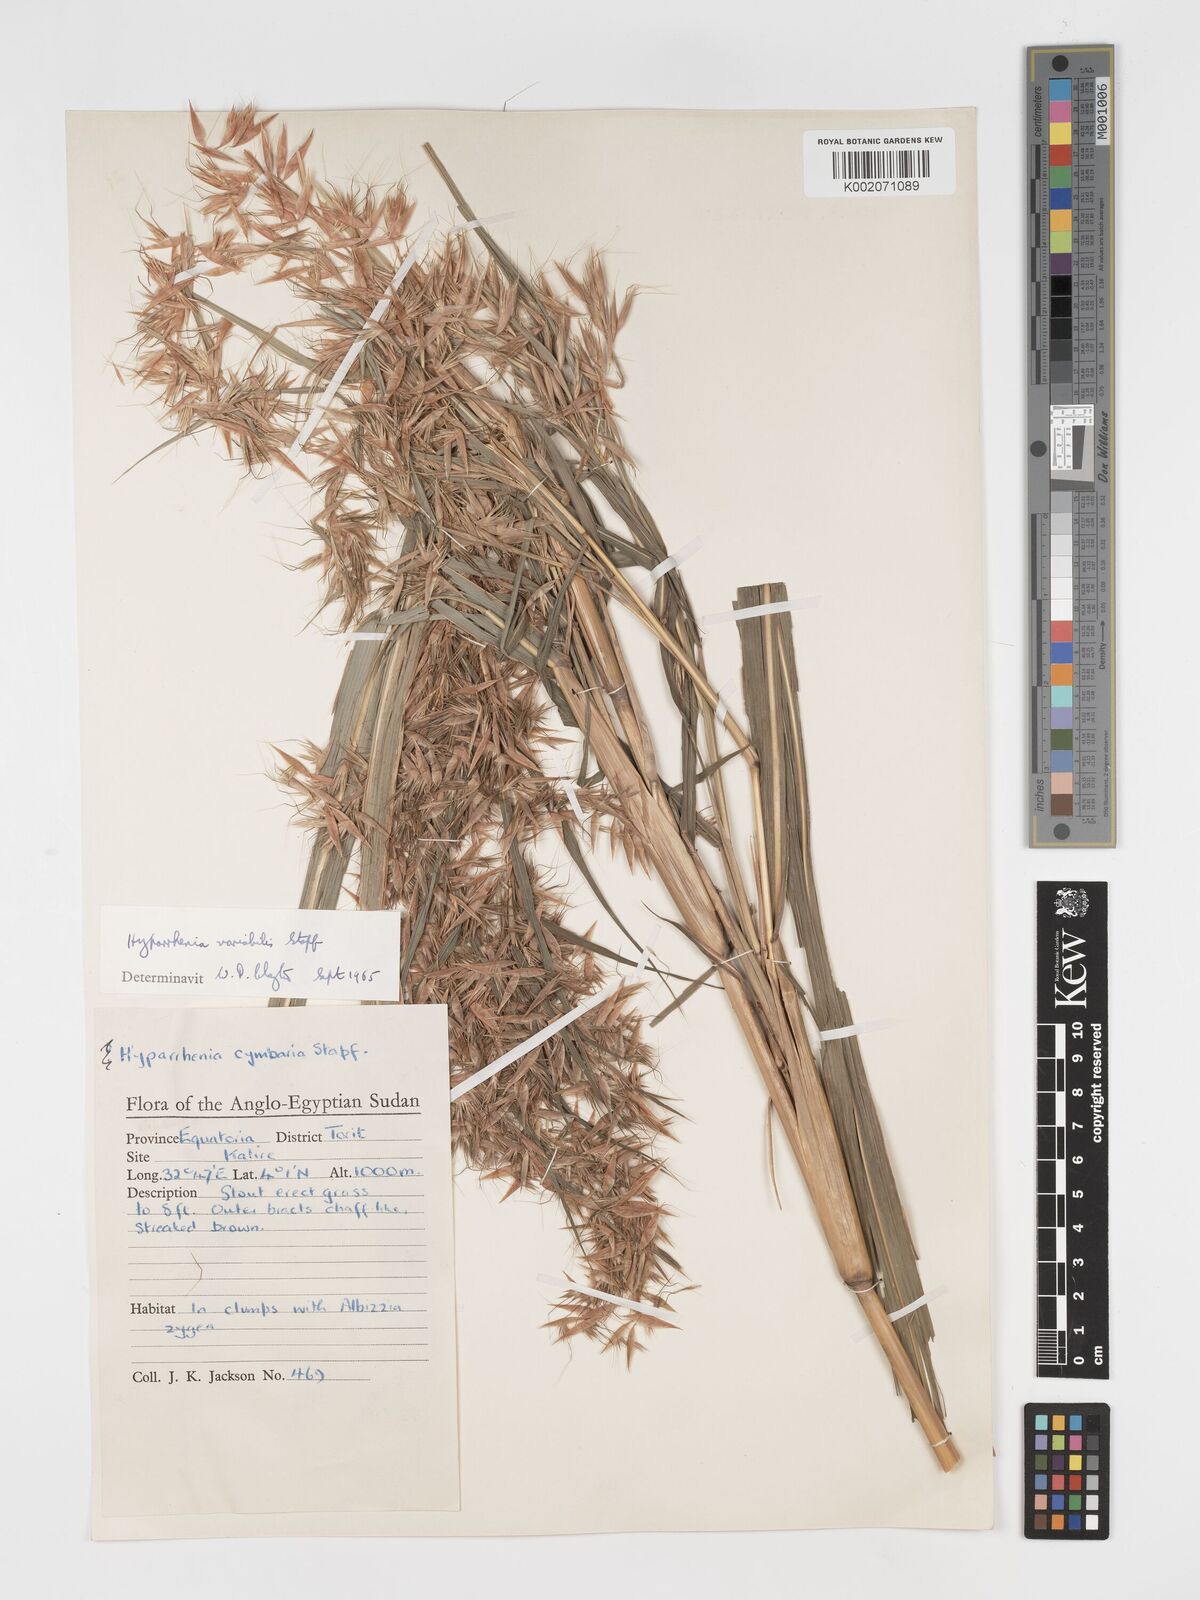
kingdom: Plantae
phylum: Tracheophyta
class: Liliopsida
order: Poales
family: Poaceae
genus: Hyparrhenia
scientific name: Hyparrhenia variabilis
